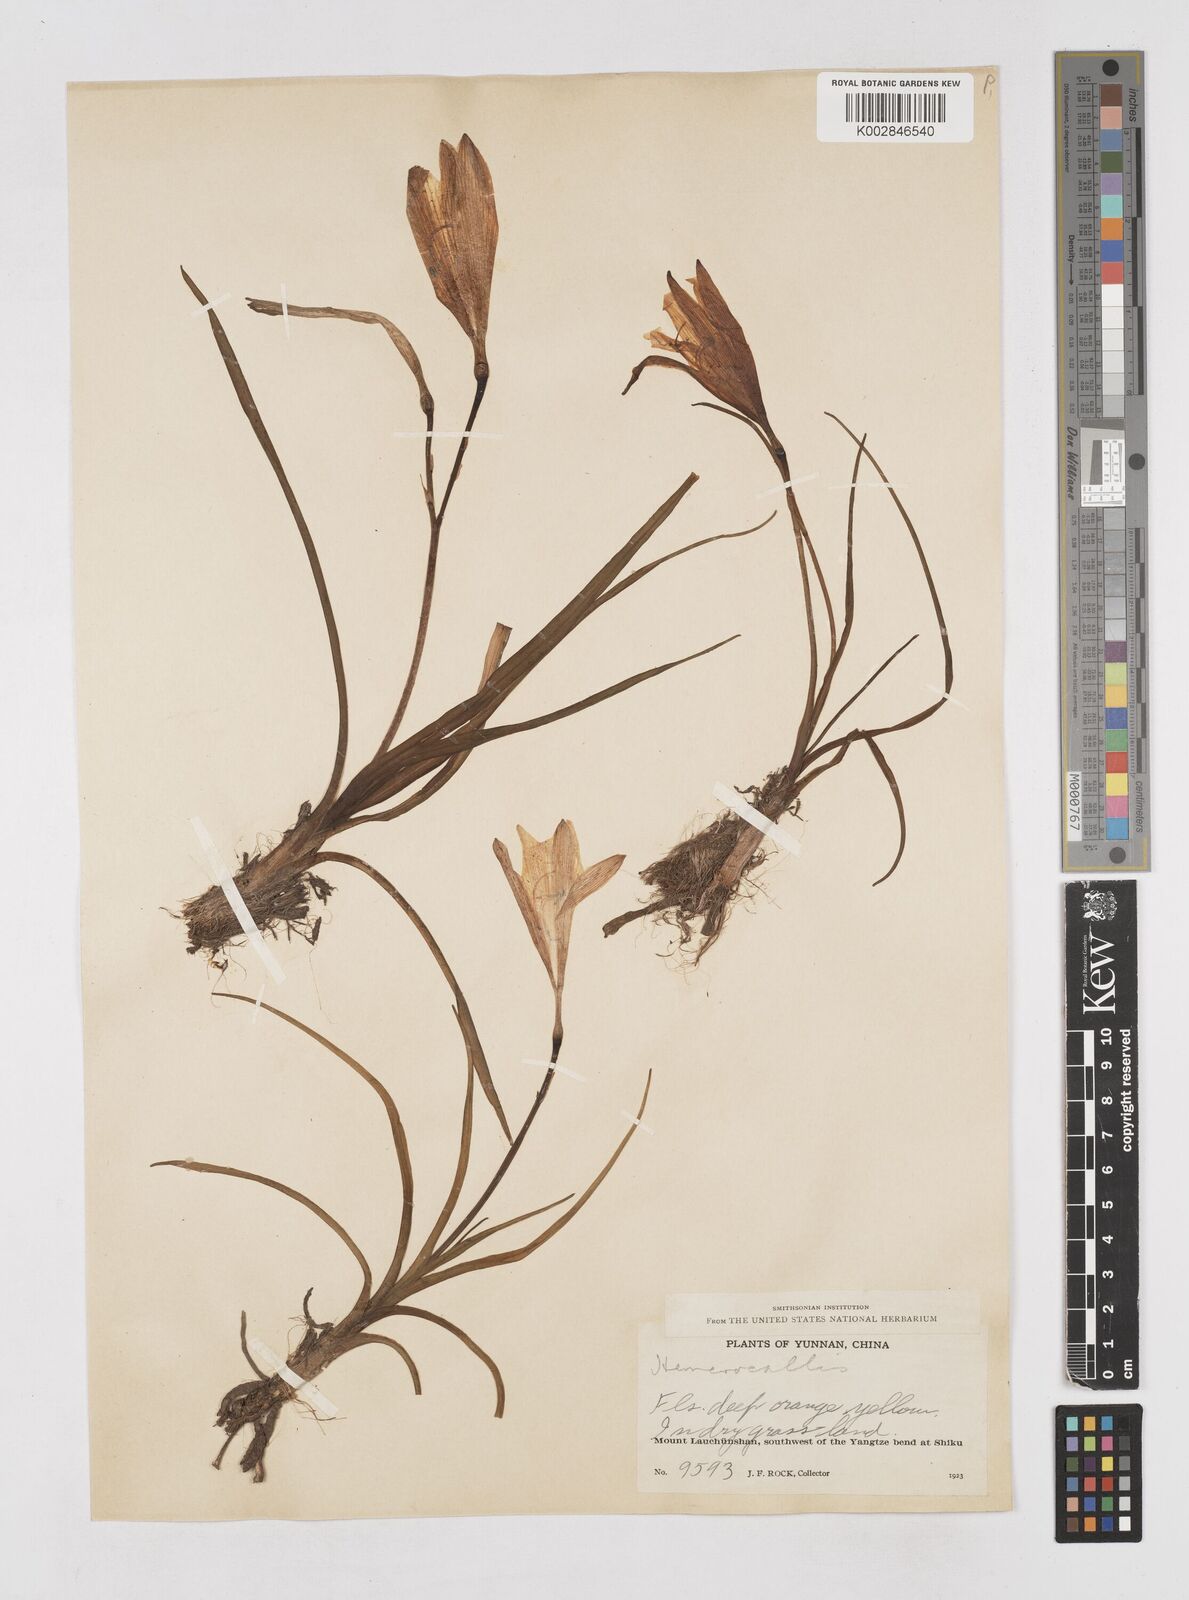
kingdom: Plantae
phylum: Tracheophyta
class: Liliopsida
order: Asparagales
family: Asphodelaceae
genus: Hemerocallis
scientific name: Hemerocallis nana
